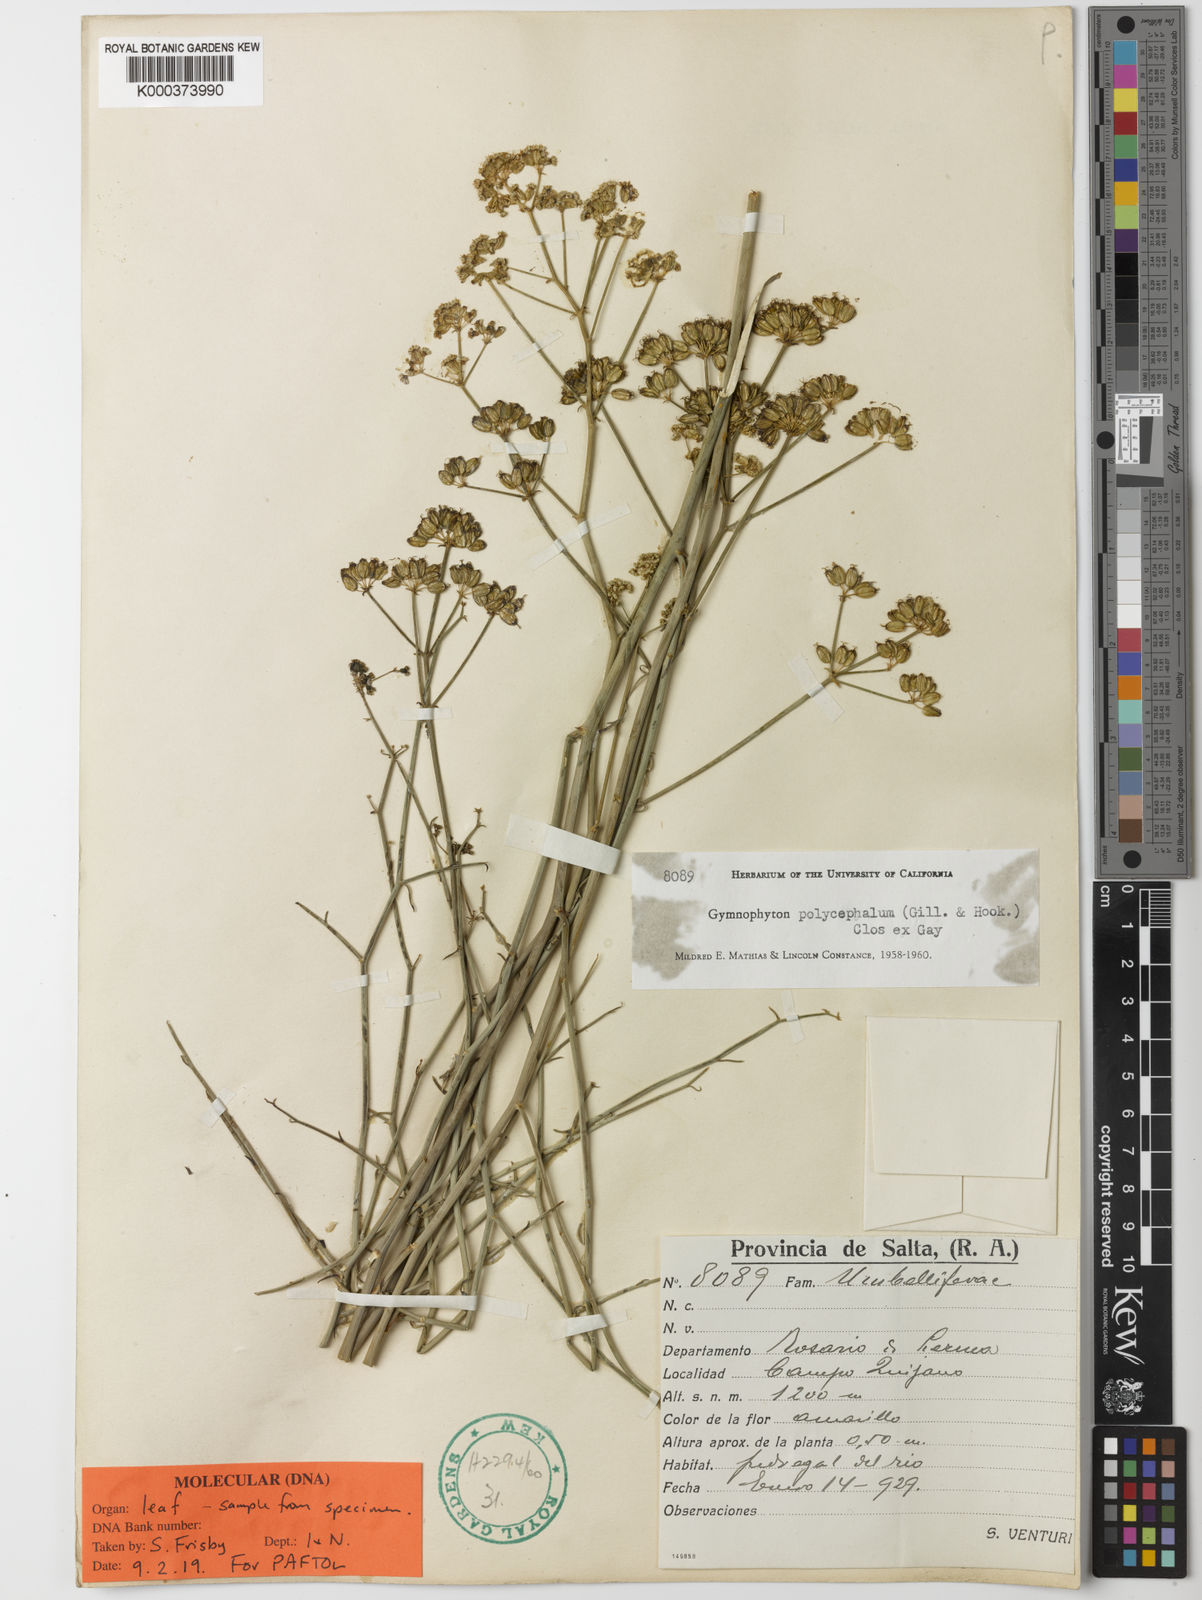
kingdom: Plantae
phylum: Tracheophyta
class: Magnoliopsida
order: Apiales
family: Apiaceae
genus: Gymnophyton
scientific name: Gymnophyton
